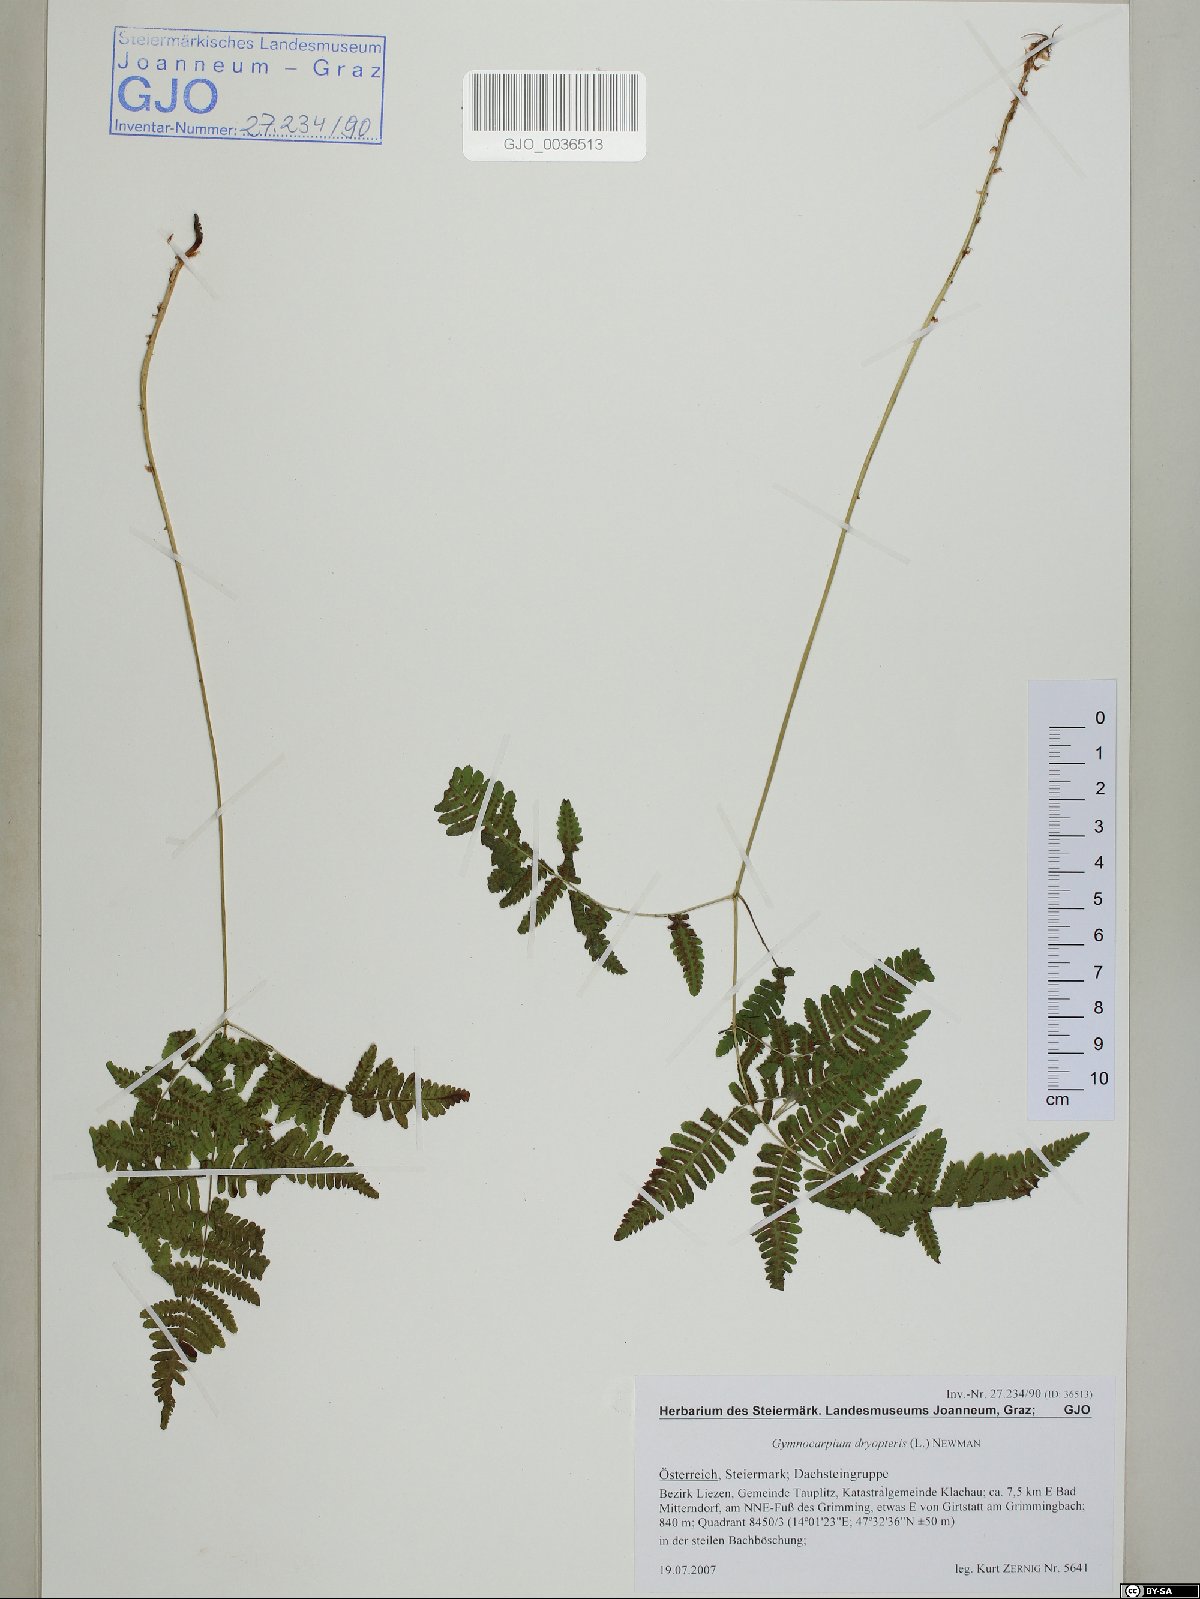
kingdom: Plantae
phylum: Tracheophyta
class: Polypodiopsida
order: Polypodiales
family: Cystopteridaceae
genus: Gymnocarpium
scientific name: Gymnocarpium dryopteris
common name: Oak fern
